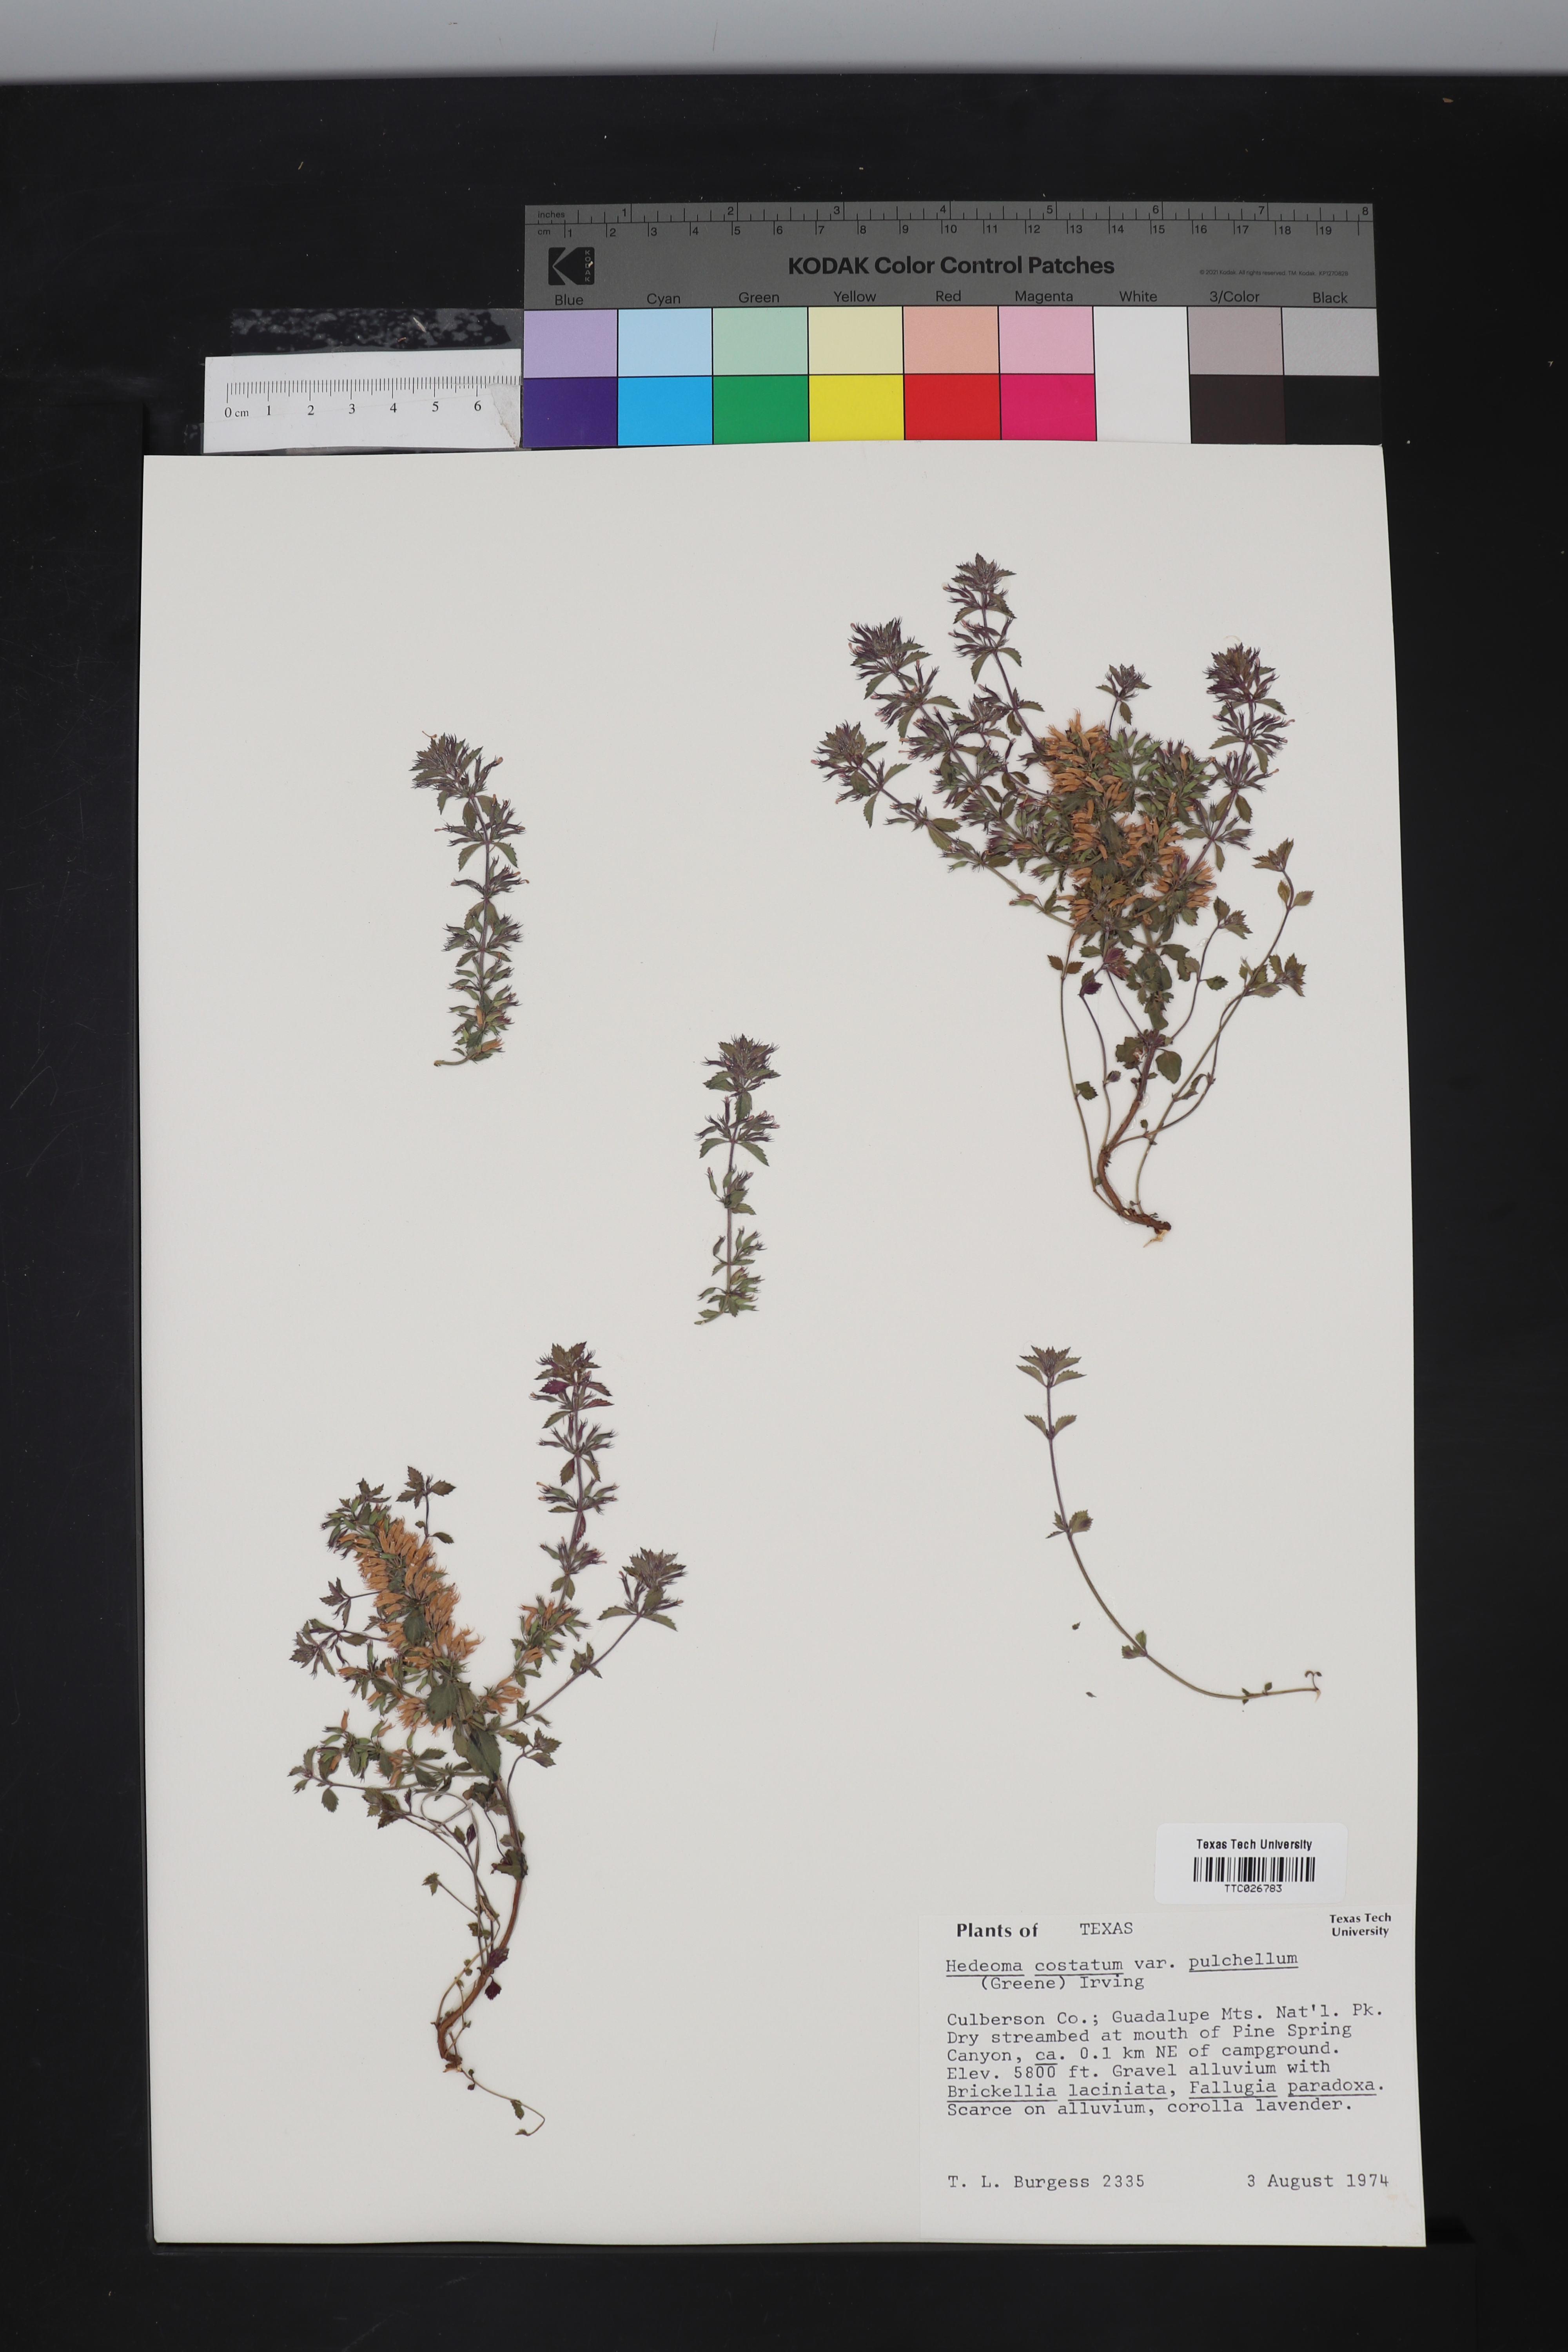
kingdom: Plantae
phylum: Tracheophyta
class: Magnoliopsida
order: Lamiales
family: Lamiaceae
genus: Hedeoma
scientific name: Hedeoma costata
